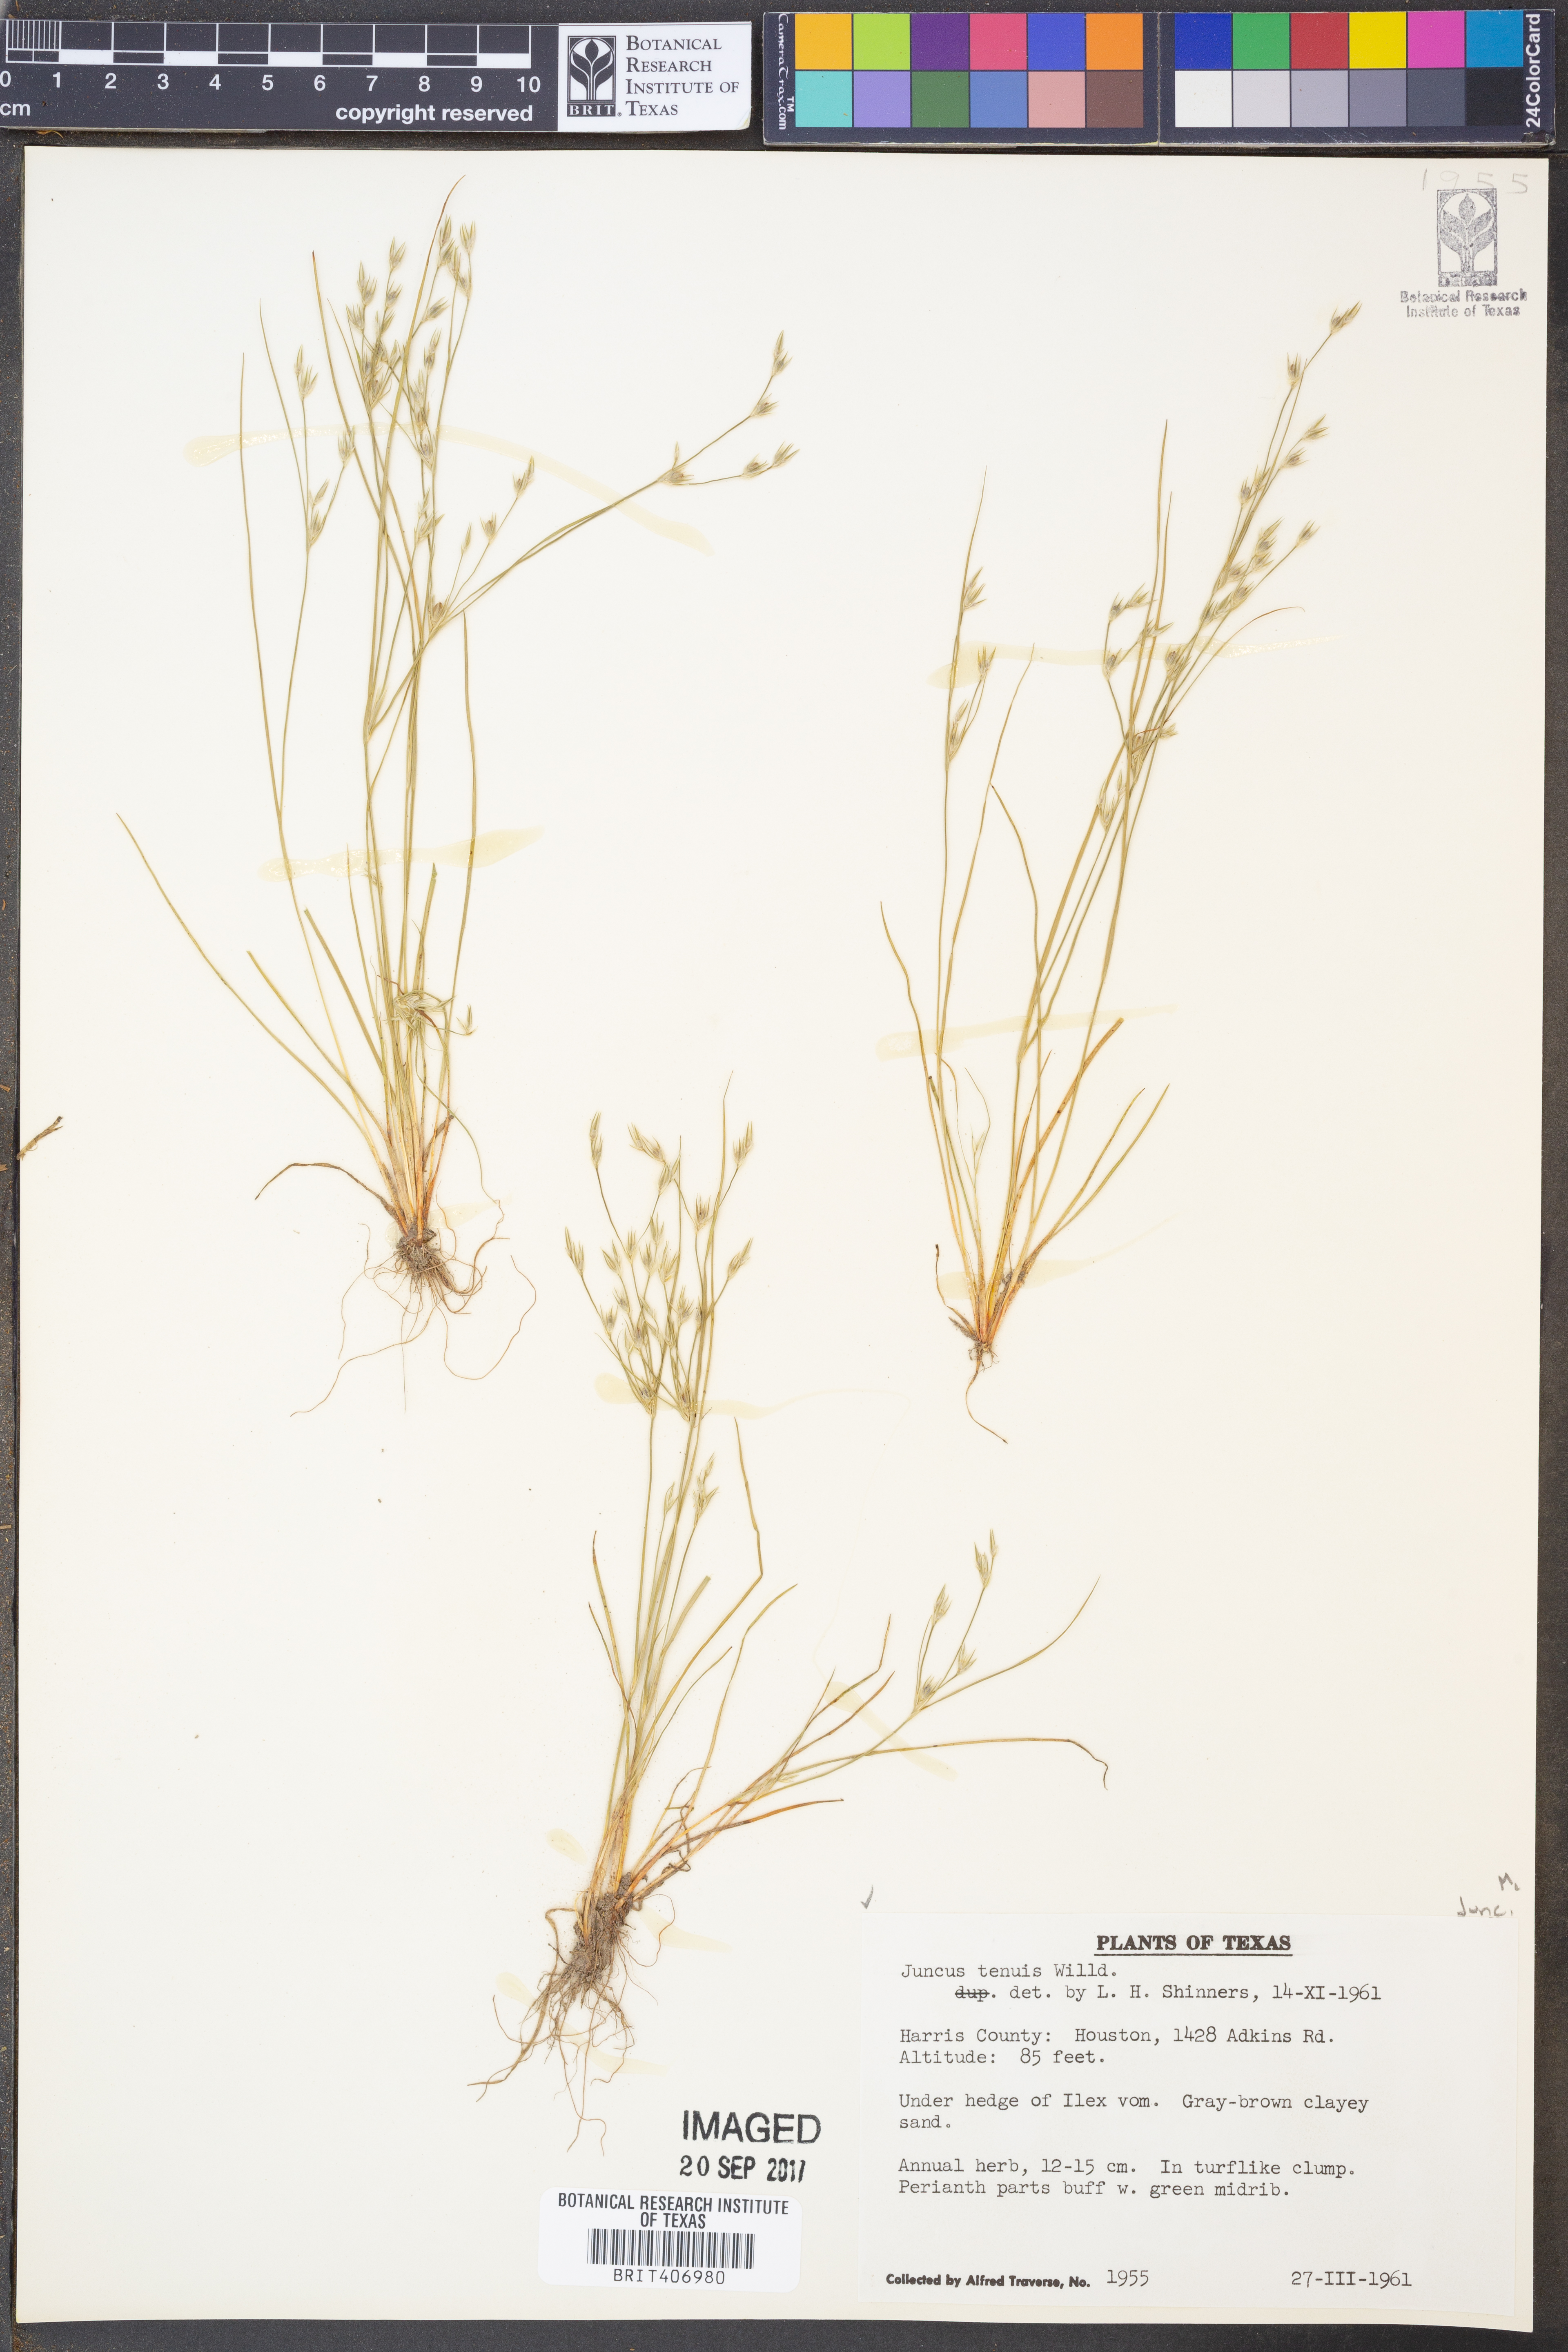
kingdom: Plantae
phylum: Tracheophyta
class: Liliopsida
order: Poales
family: Juncaceae
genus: Juncus
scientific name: Juncus tenuis
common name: Slender rush
